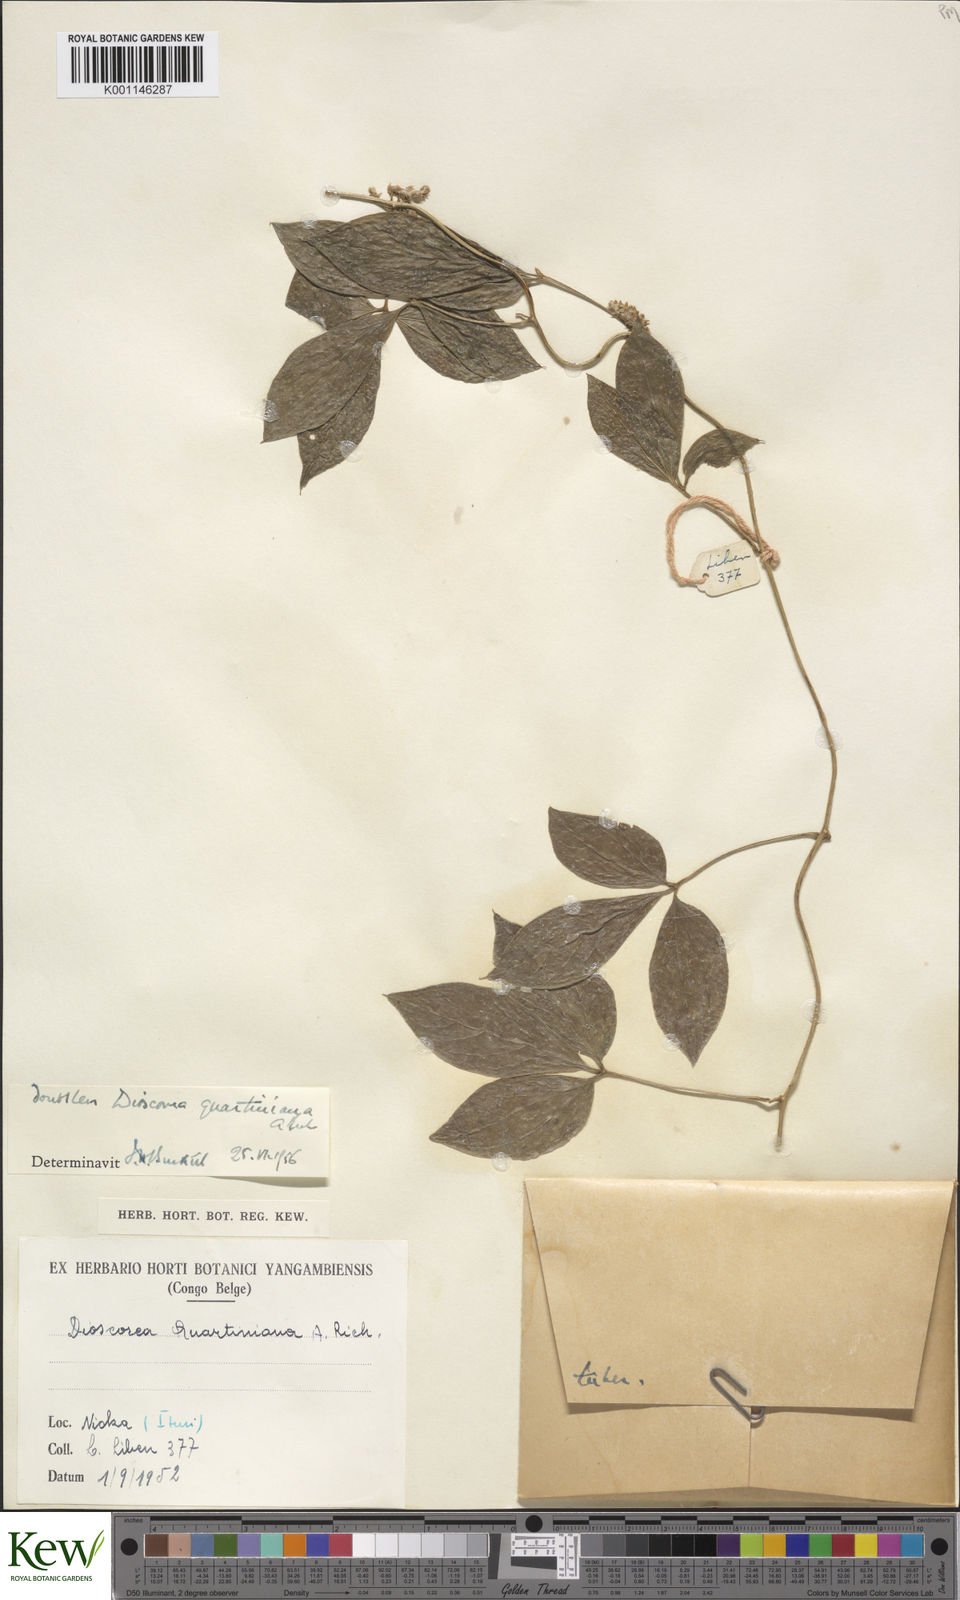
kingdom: Plantae
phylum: Tracheophyta
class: Liliopsida
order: Dioscoreales
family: Dioscoreaceae
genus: Dioscorea
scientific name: Dioscorea quartiniana
